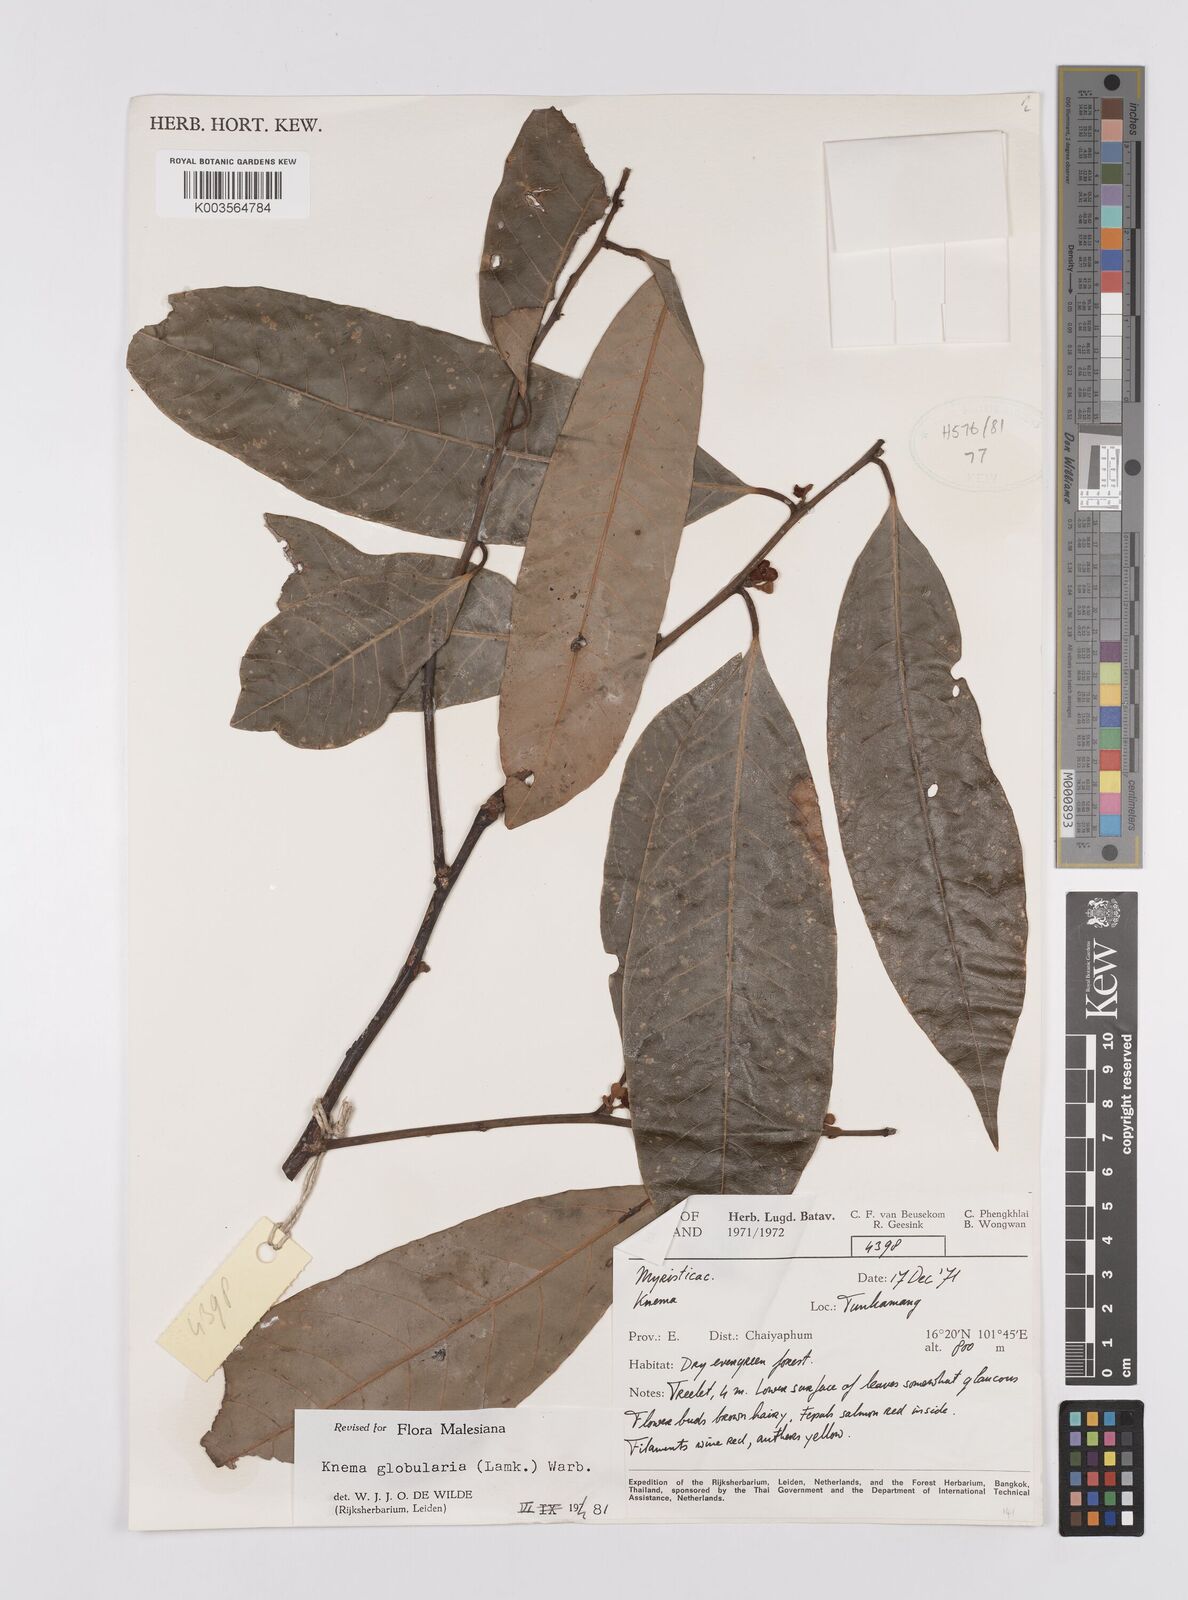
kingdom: Plantae
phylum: Tracheophyta
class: Magnoliopsida
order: Magnoliales
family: Myristicaceae
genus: Knema
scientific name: Knema globularia
